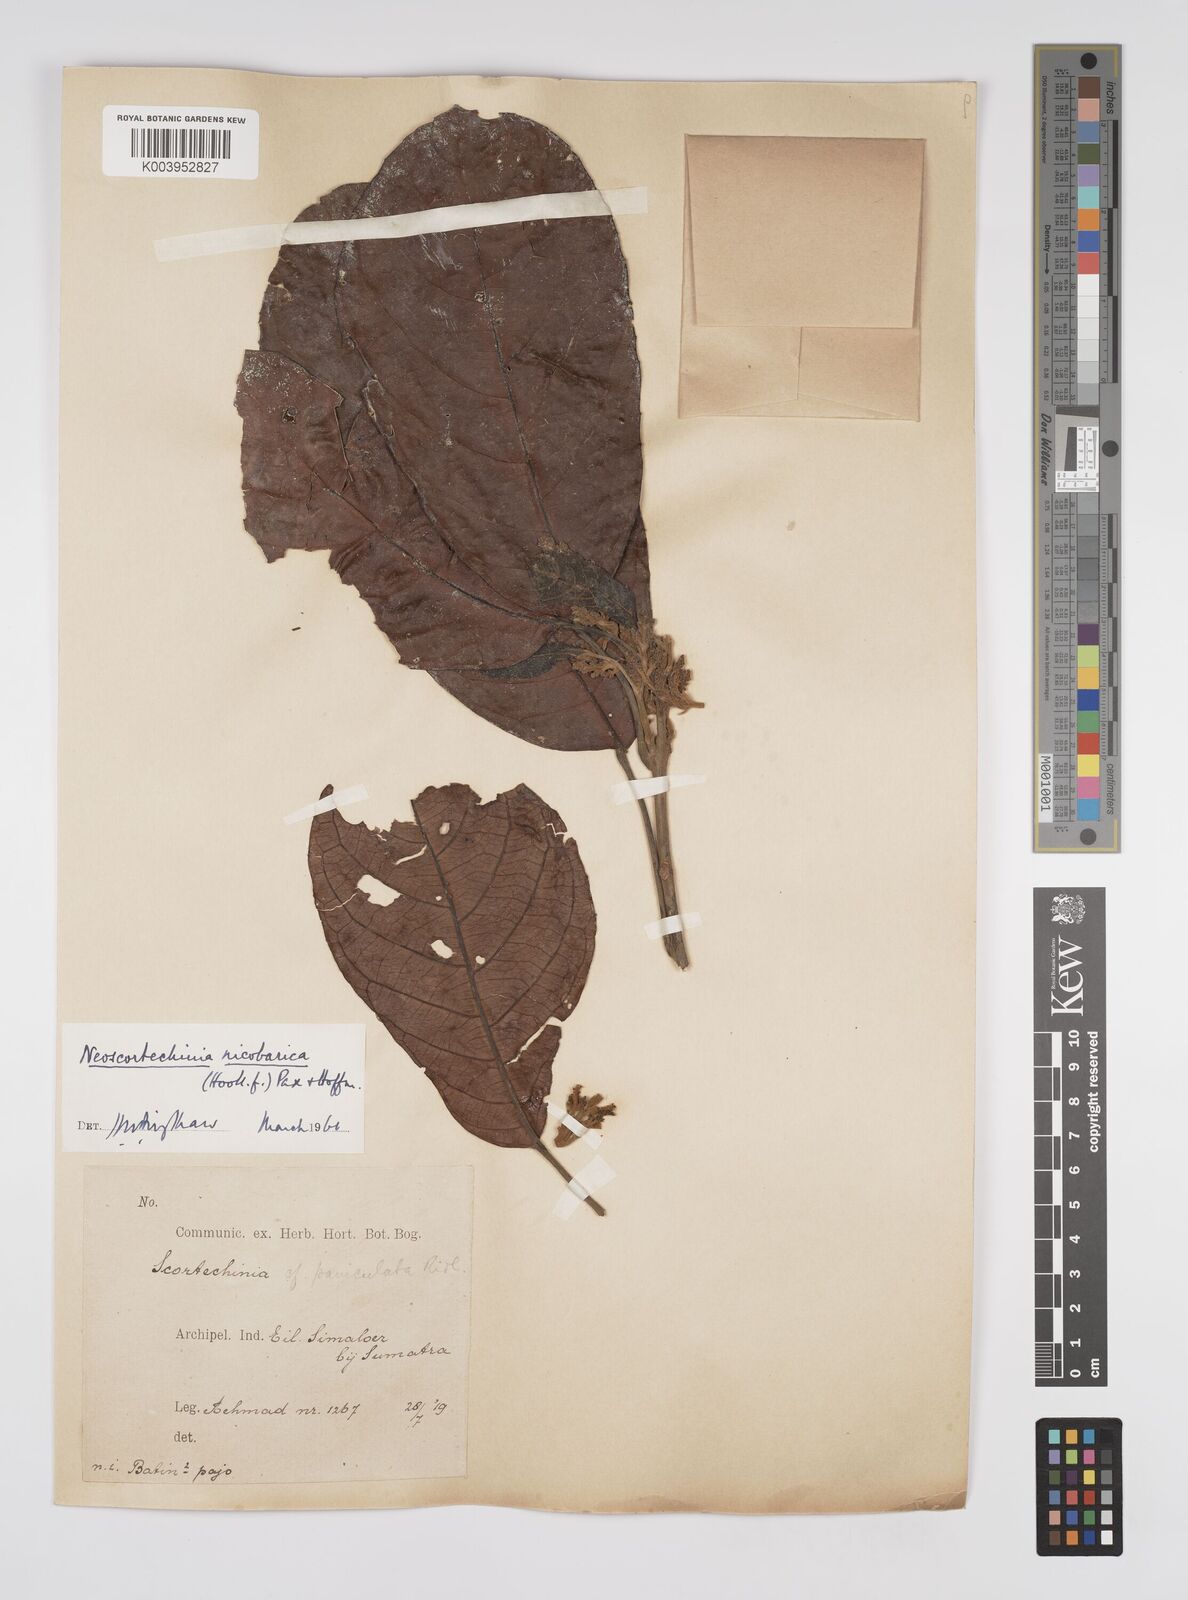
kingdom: Plantae
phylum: Tracheophyta
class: Magnoliopsida
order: Malpighiales
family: Euphorbiaceae
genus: Neoscortechinia
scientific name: Neoscortechinia nicobarica
